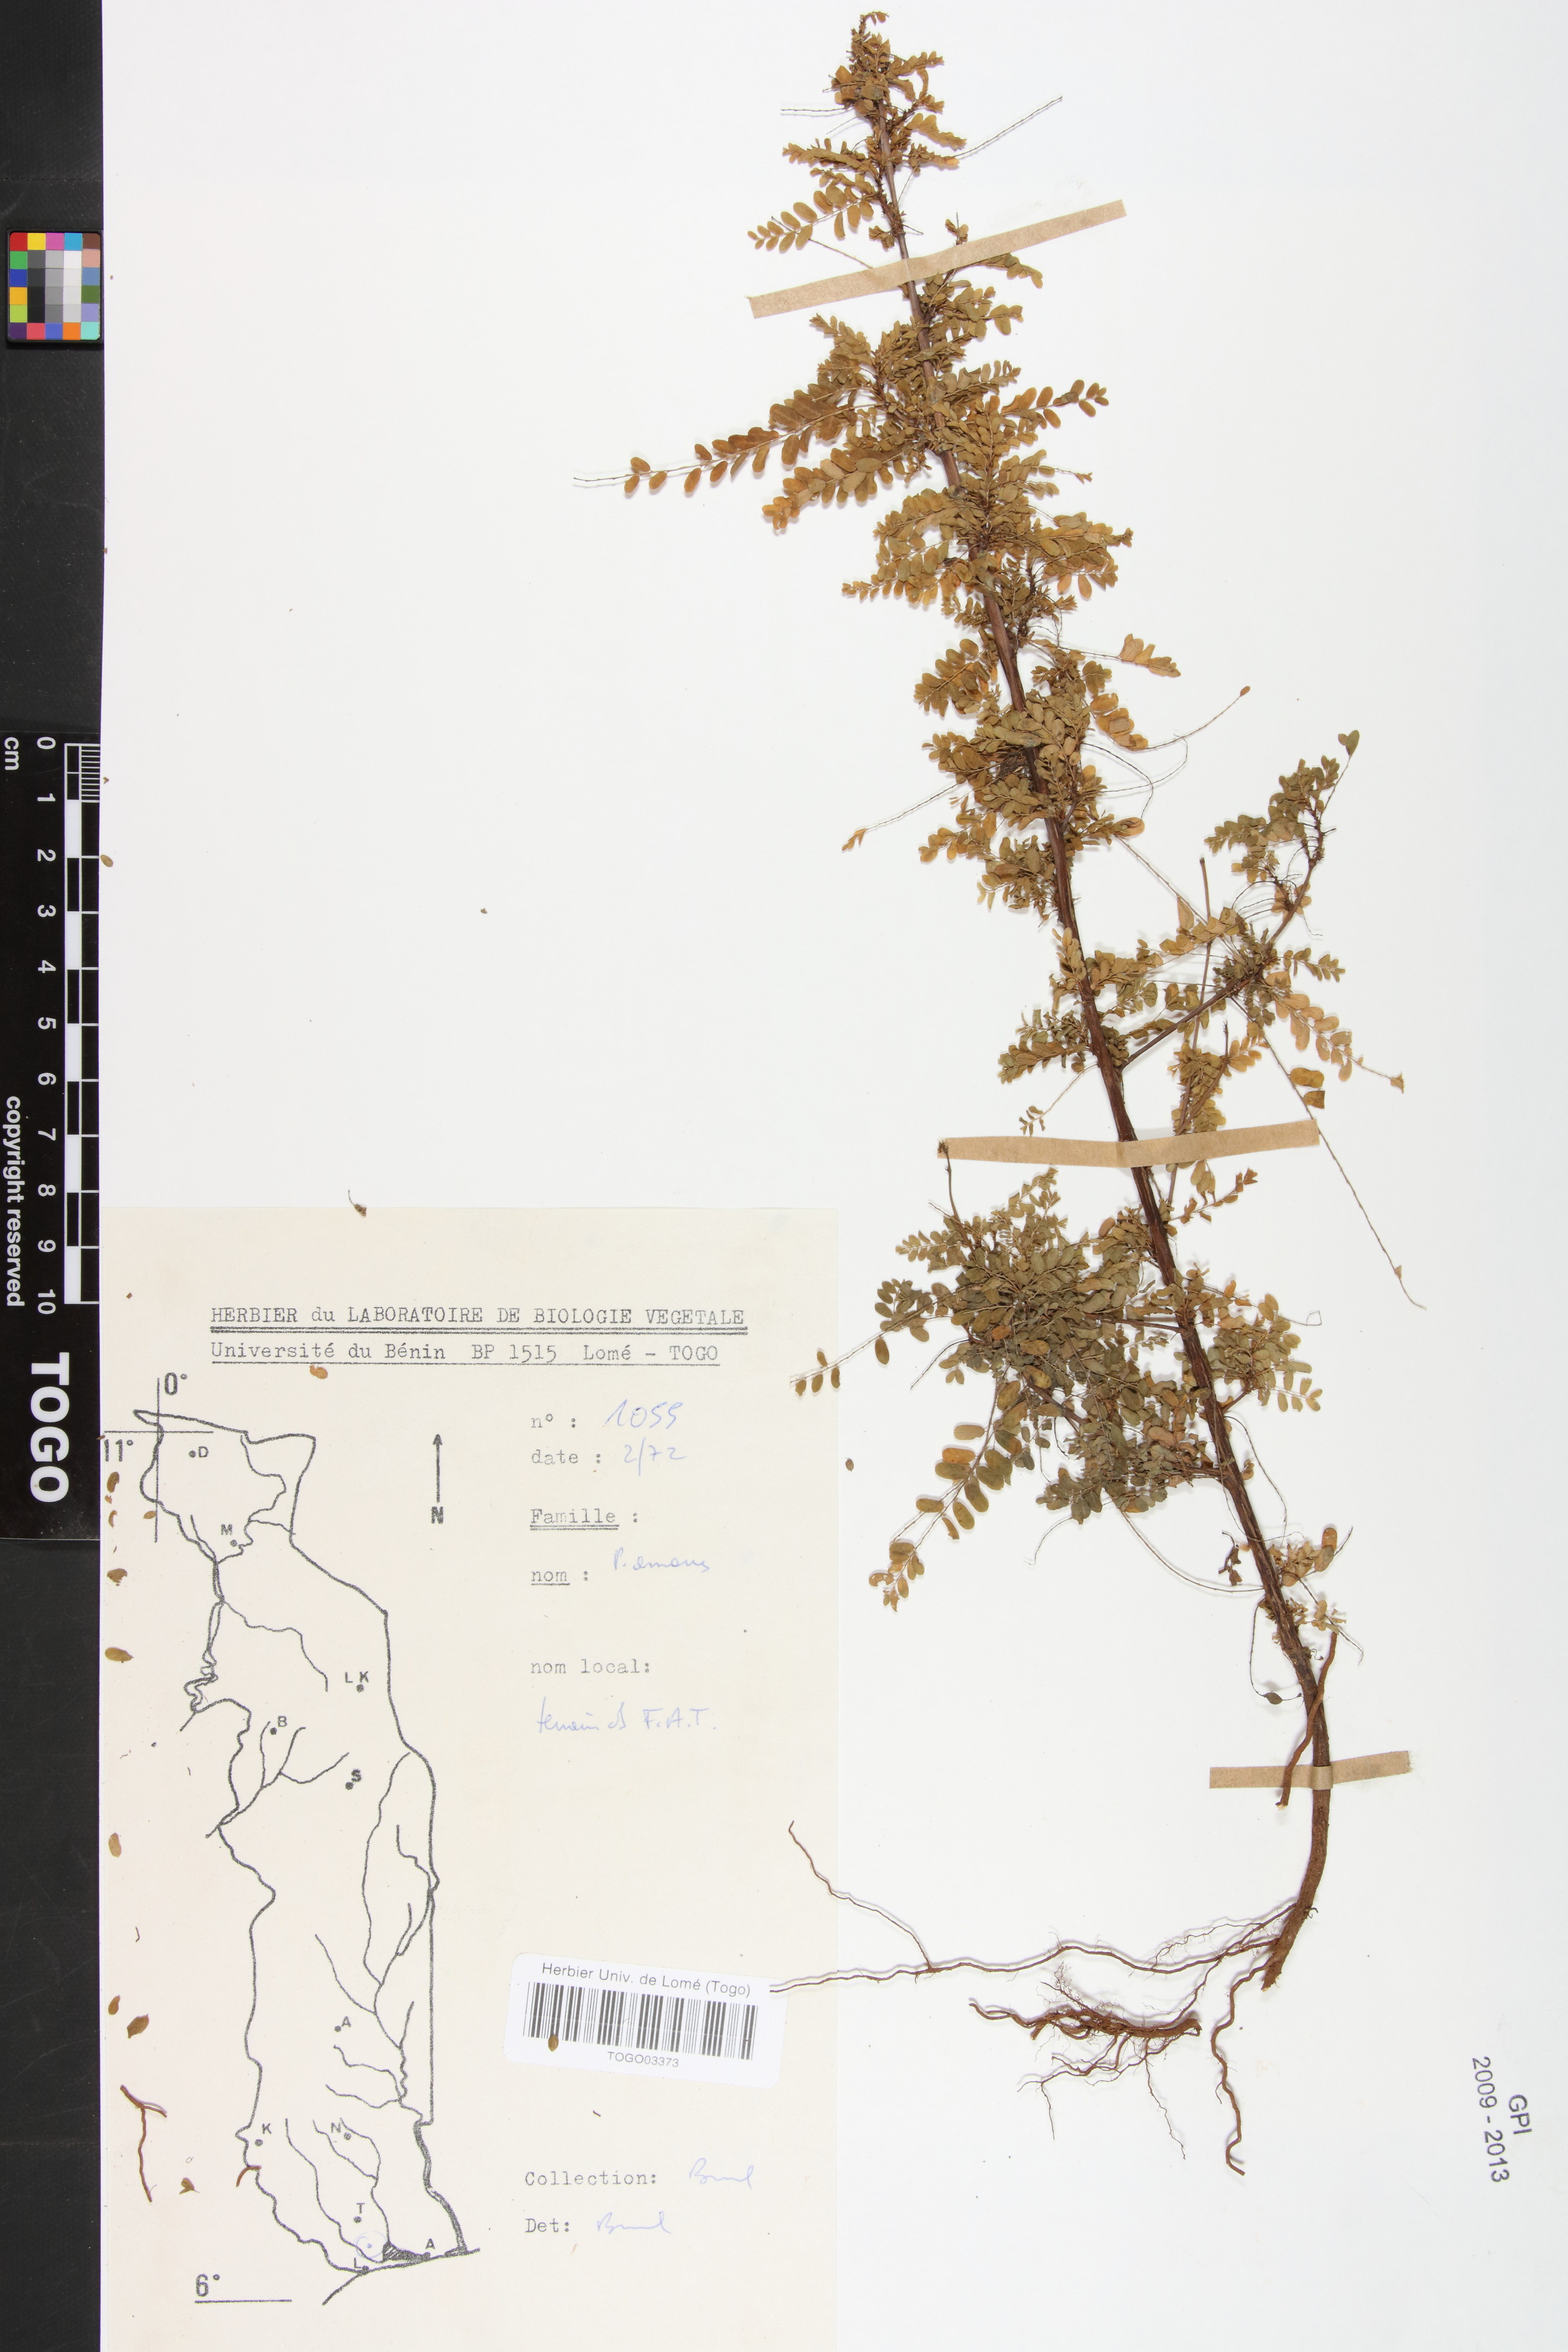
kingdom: Plantae
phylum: Tracheophyta
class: Magnoliopsida
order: Malpighiales
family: Phyllanthaceae
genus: Phyllanthus
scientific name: Phyllanthus amarus
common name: Carry me seed
